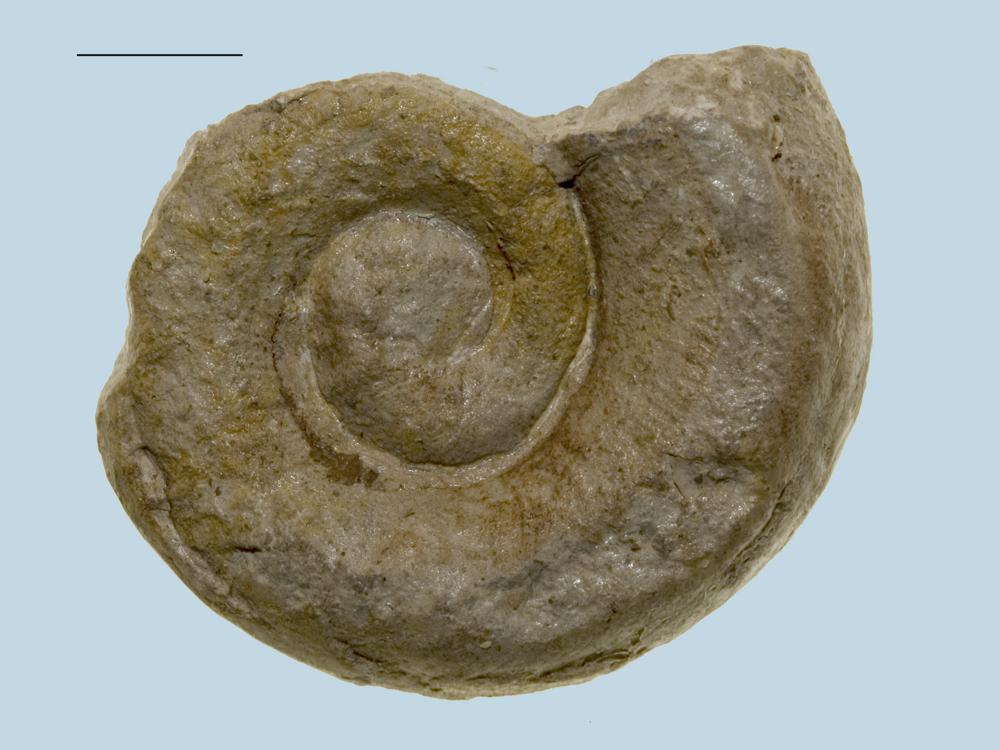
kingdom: Animalia
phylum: Mollusca
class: Gastropoda
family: Holopeidae
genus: Holopea
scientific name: Holopea ampullacea
